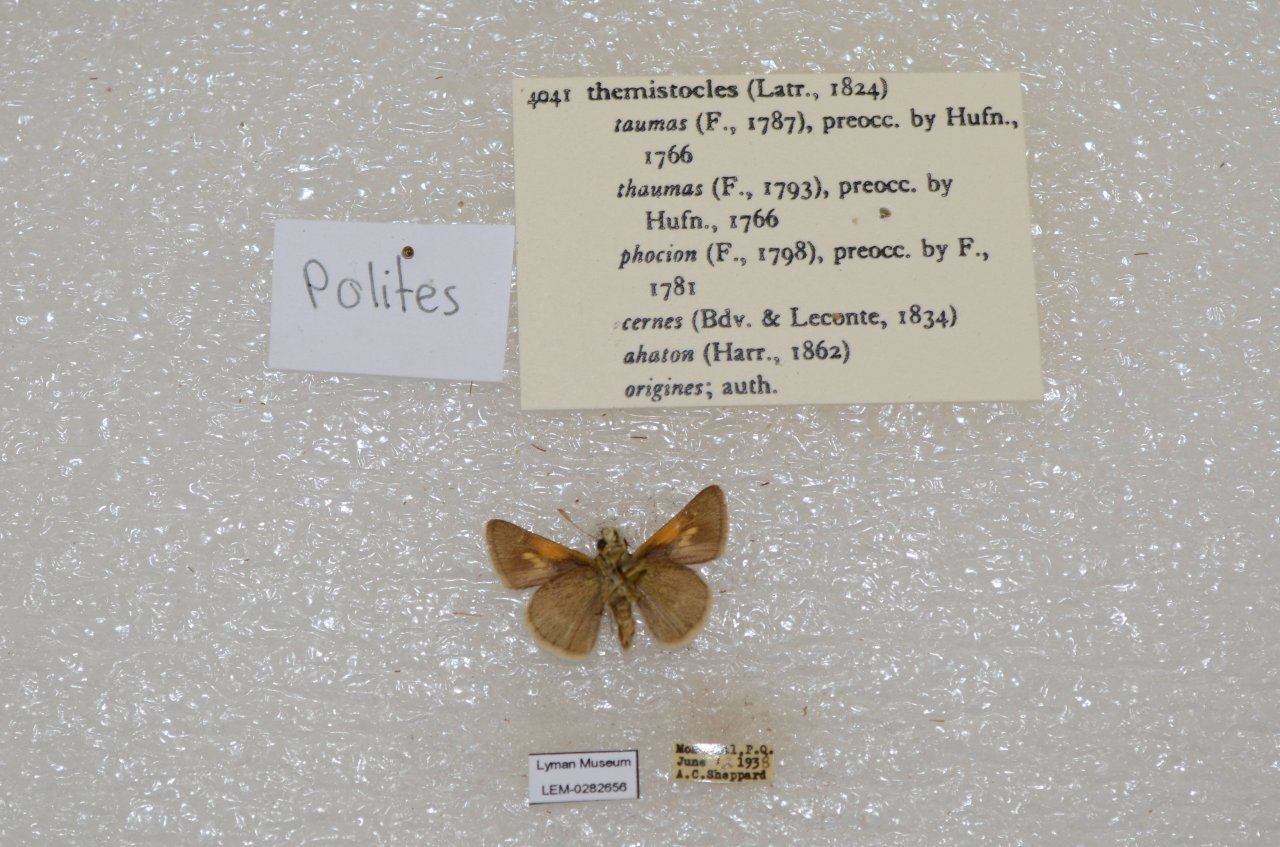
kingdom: Animalia
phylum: Arthropoda
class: Insecta
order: Lepidoptera
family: Hesperiidae
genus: Polites
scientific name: Polites themistocles
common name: Tawny-edged Skipper
